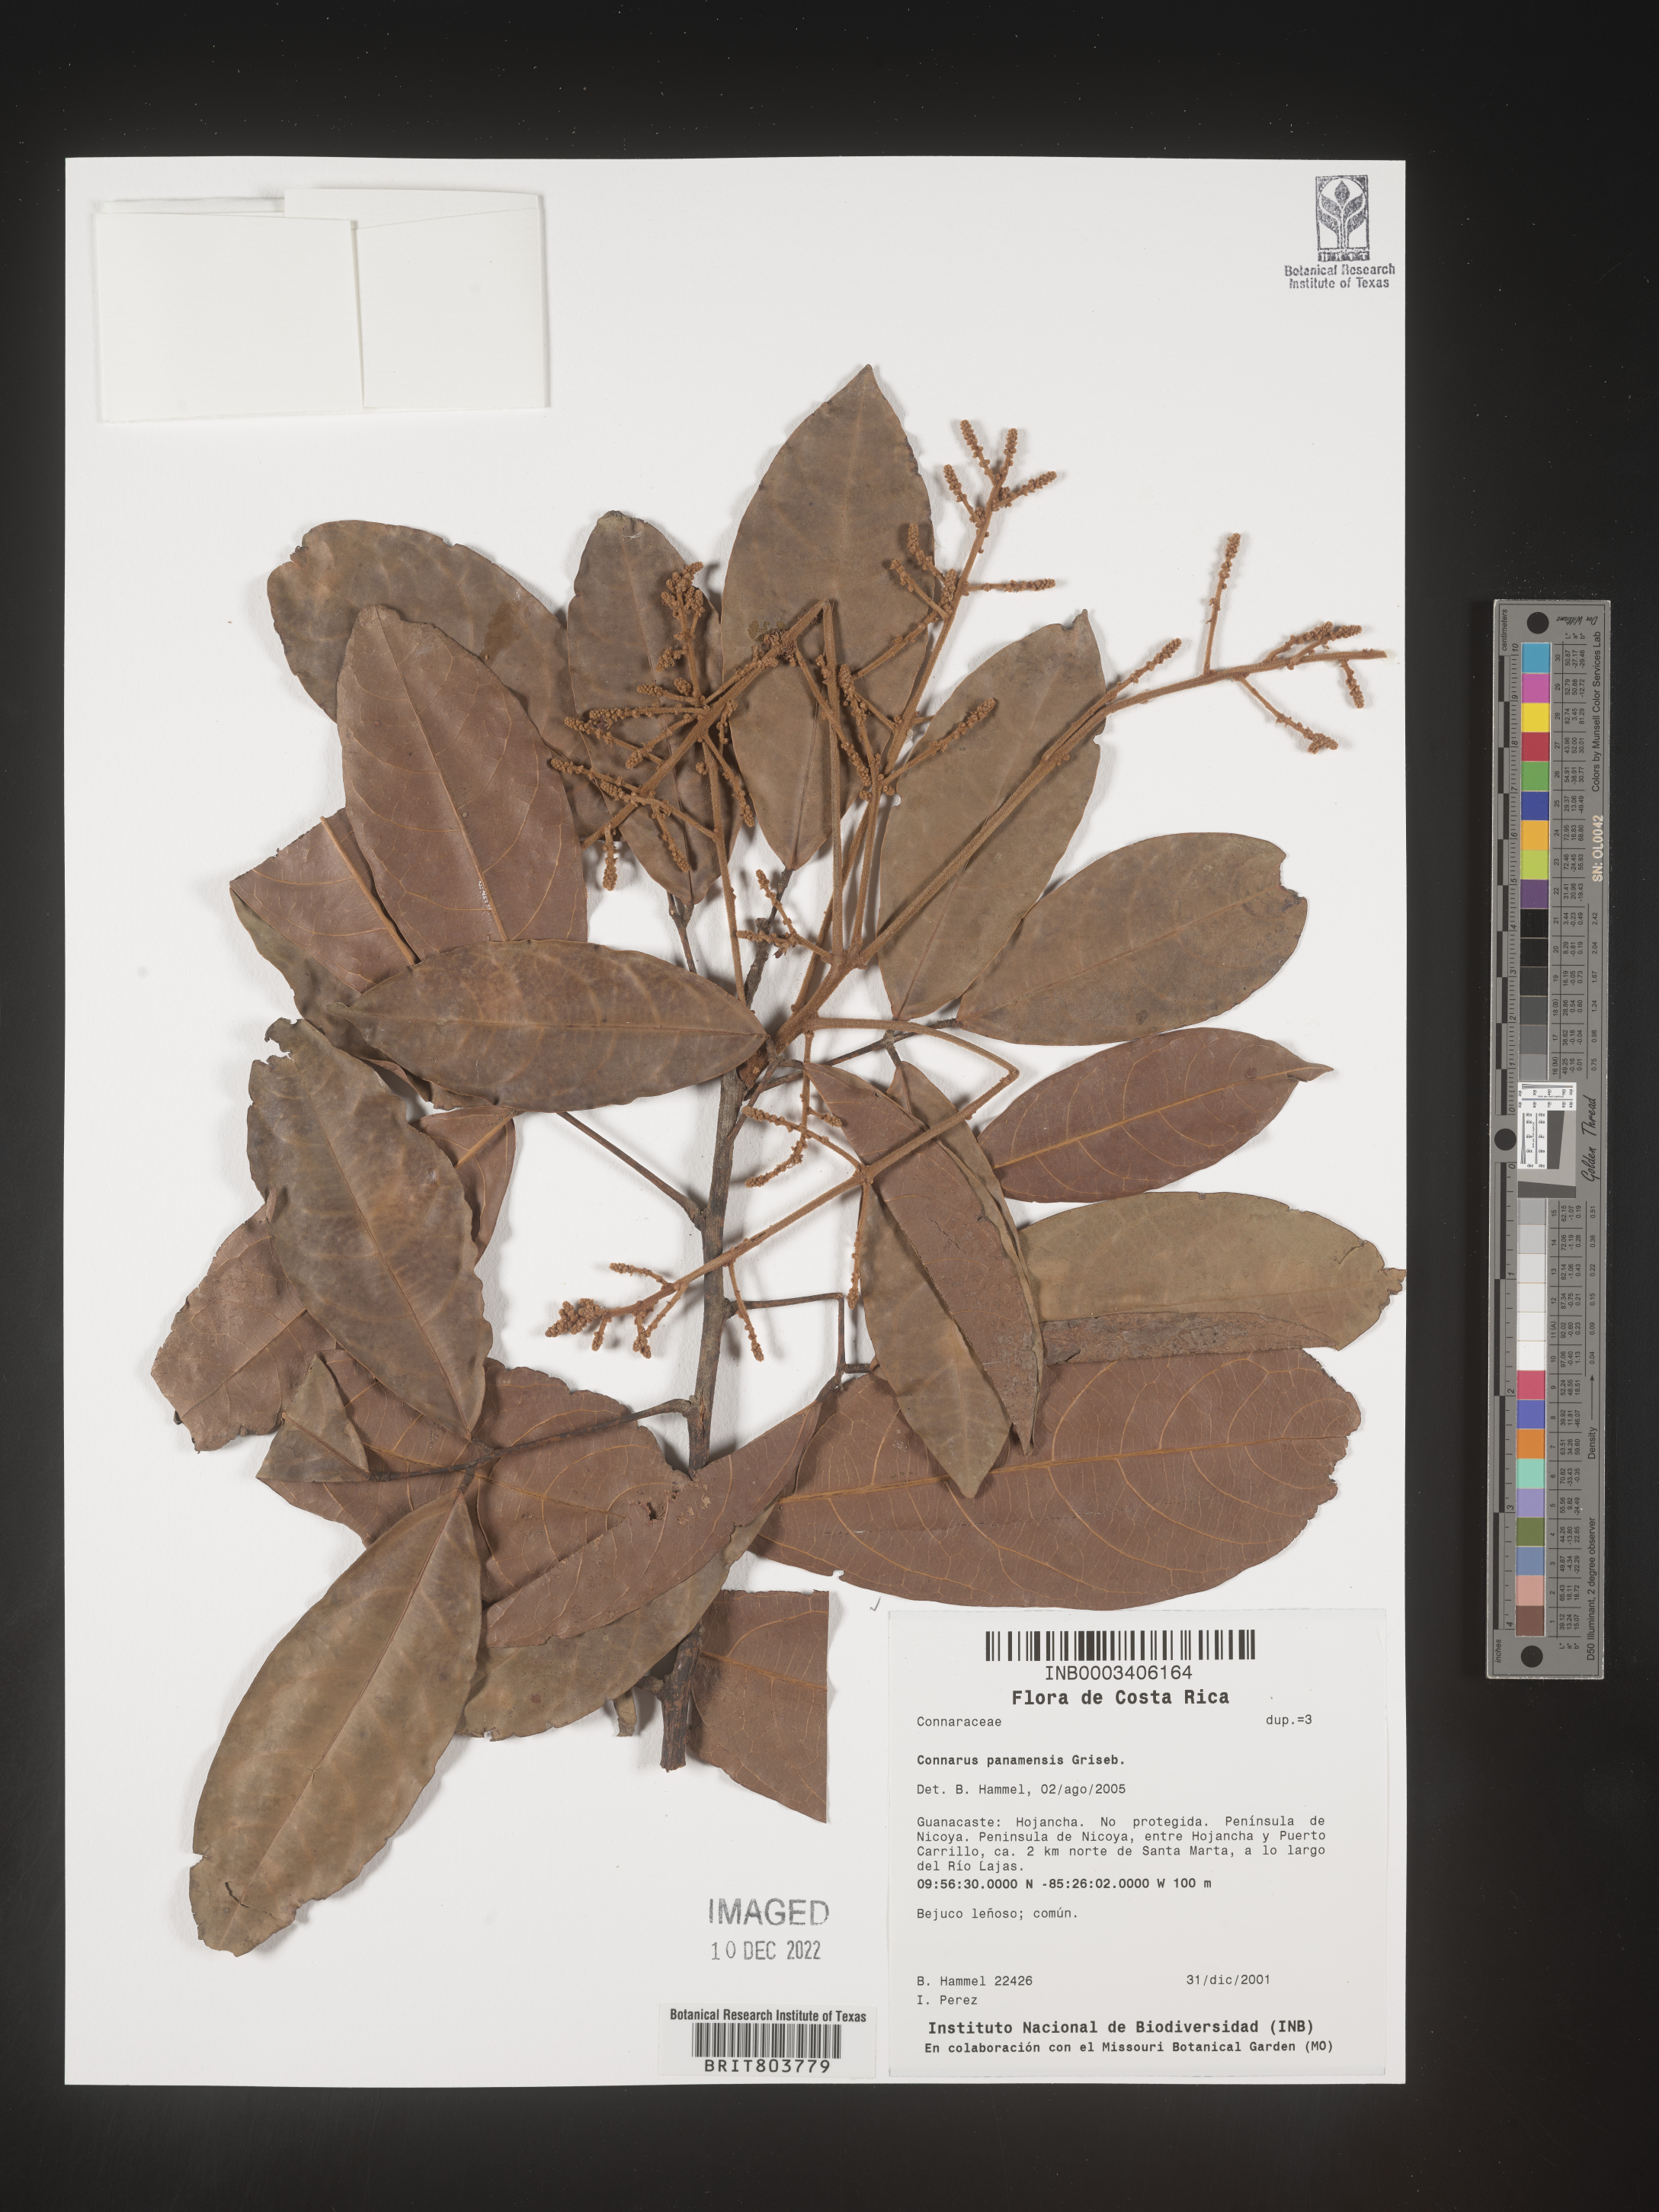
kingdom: Plantae
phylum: Tracheophyta
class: Magnoliopsida
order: Oxalidales
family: Connaraceae
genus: Connarus
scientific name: Connarus
